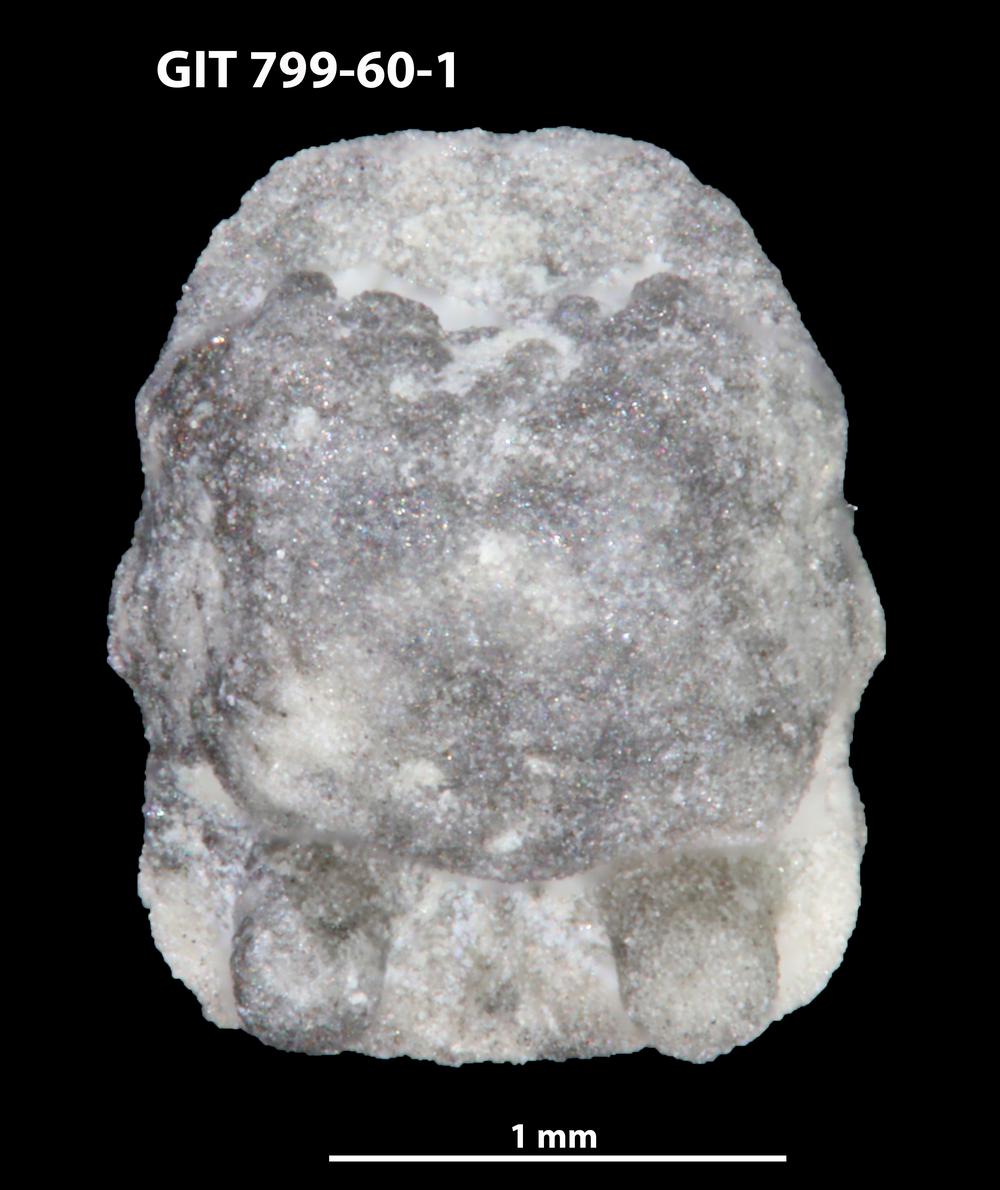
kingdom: Animalia
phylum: Echinodermata
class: Crinoidea
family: Cyclocystoididae
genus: Polytryphocycloides
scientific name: Polytryphocycloides
